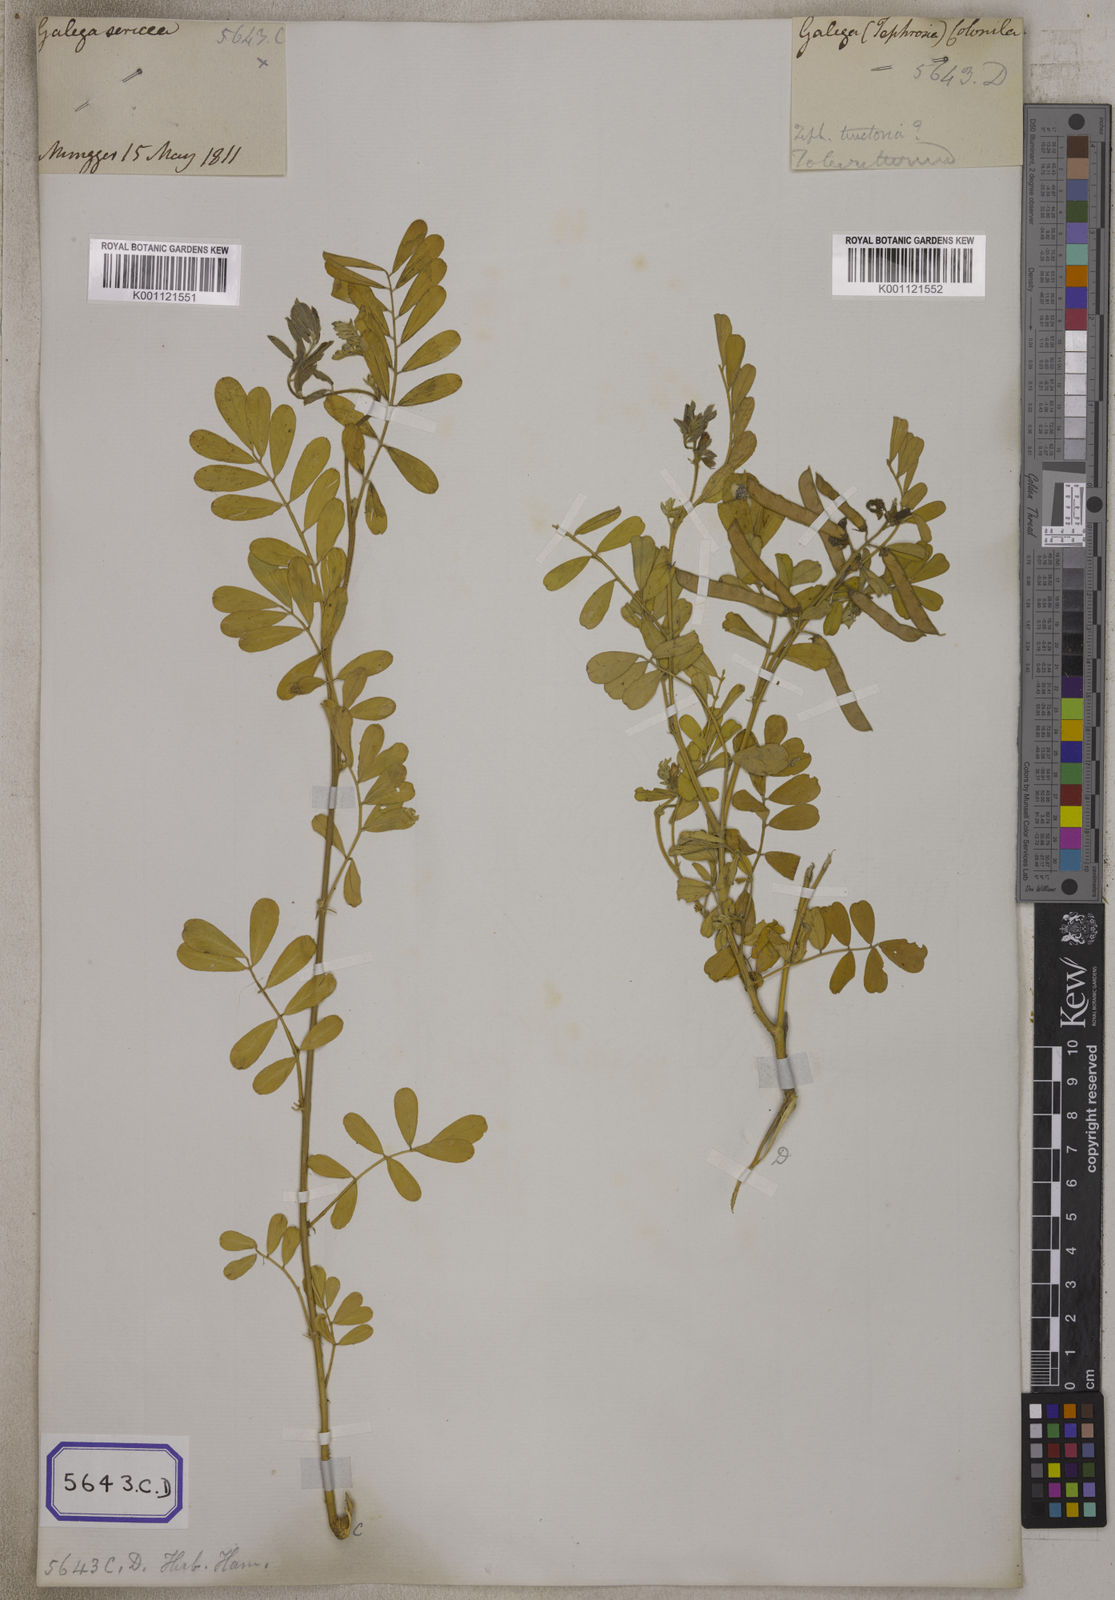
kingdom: Plantae
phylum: Tracheophyta
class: Magnoliopsida
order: Fabales
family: Fabaceae
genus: Tephrosia
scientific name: Tephrosia purpurea
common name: Fishpoison
